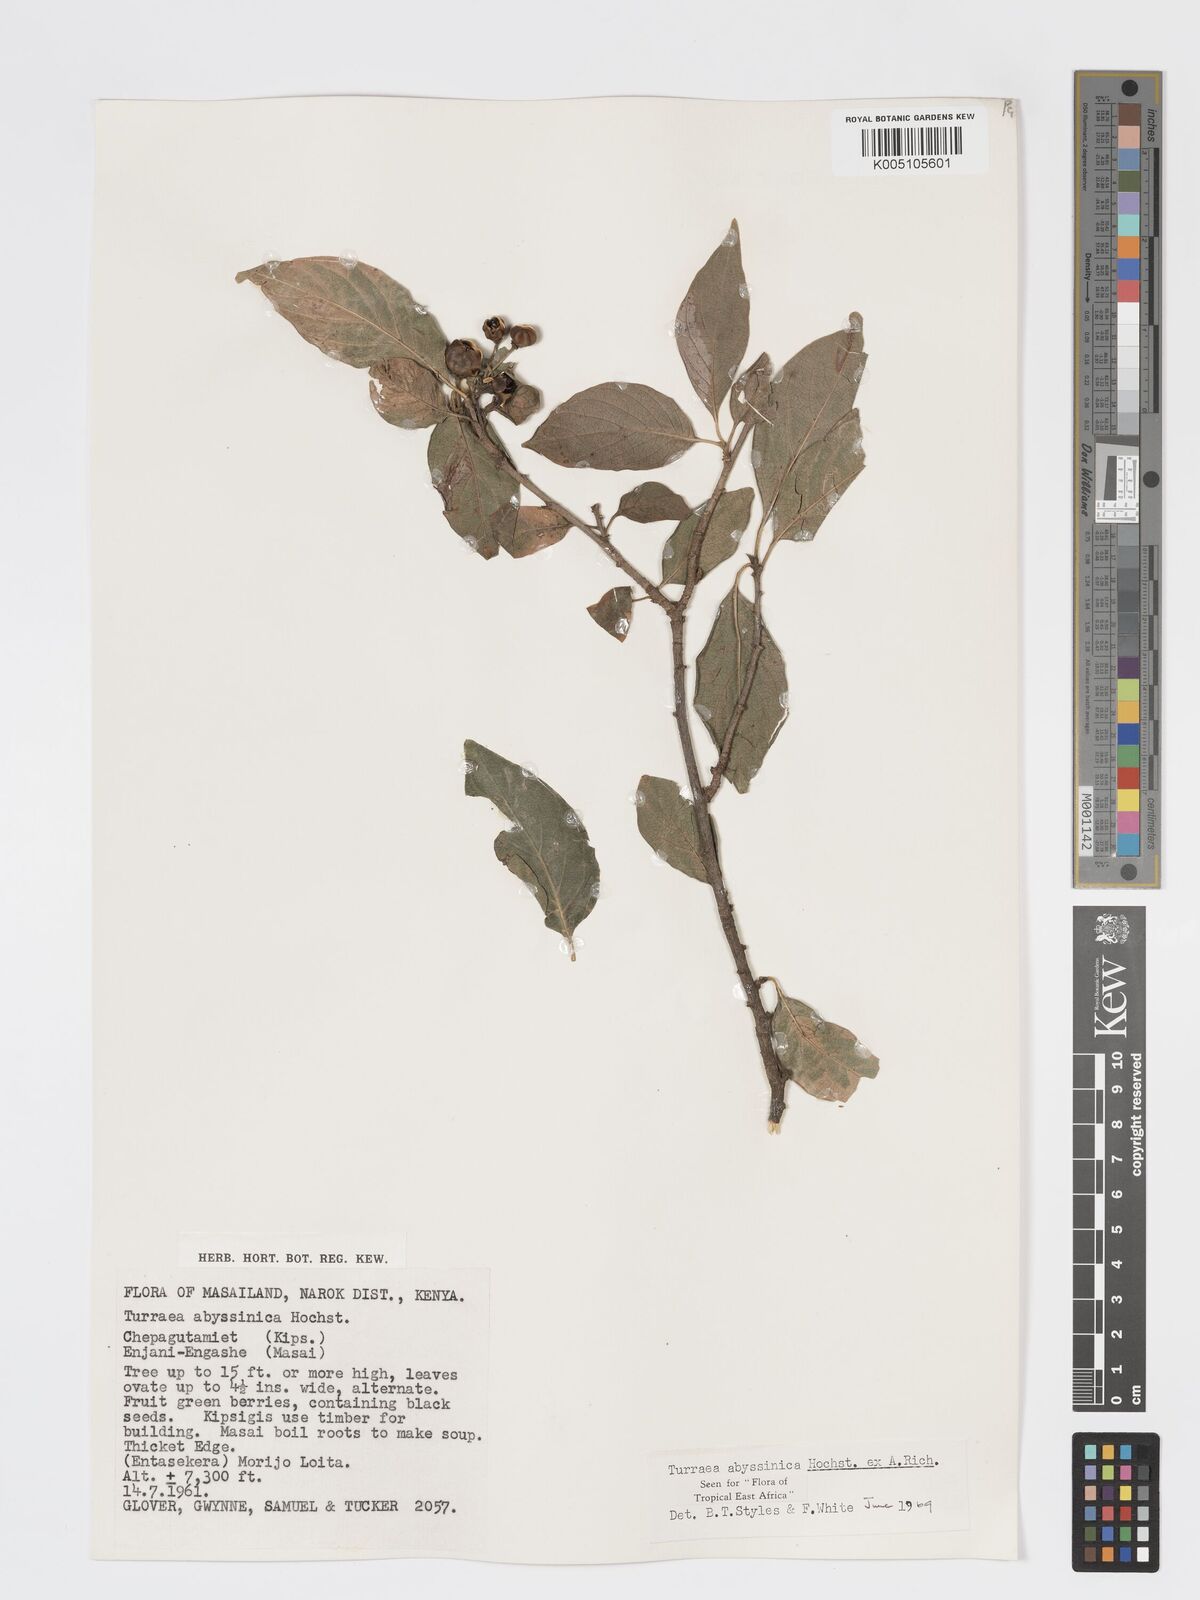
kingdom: Plantae
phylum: Tracheophyta
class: Magnoliopsida
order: Sapindales
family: Meliaceae
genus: Turraea
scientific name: Turraea abyssinica
